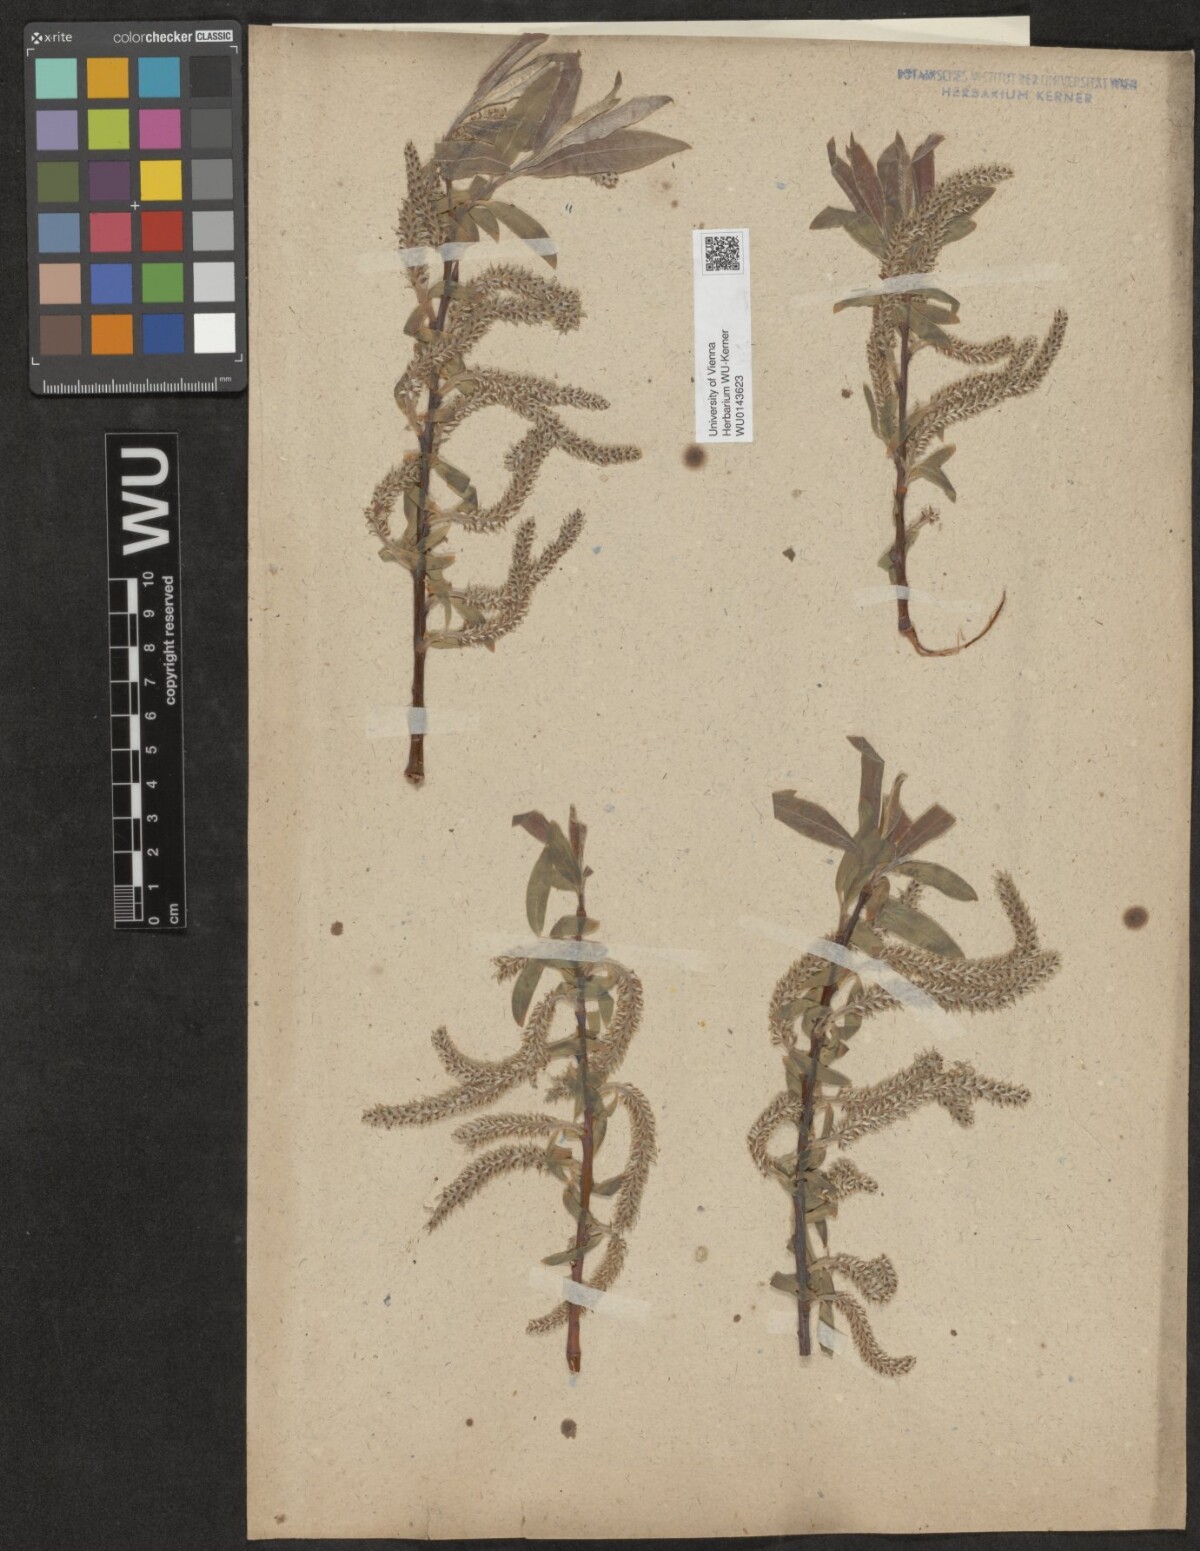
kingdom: Plantae
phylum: Tracheophyta
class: Magnoliopsida
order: Malpighiales
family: Salicaceae
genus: Salix
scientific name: Salix
